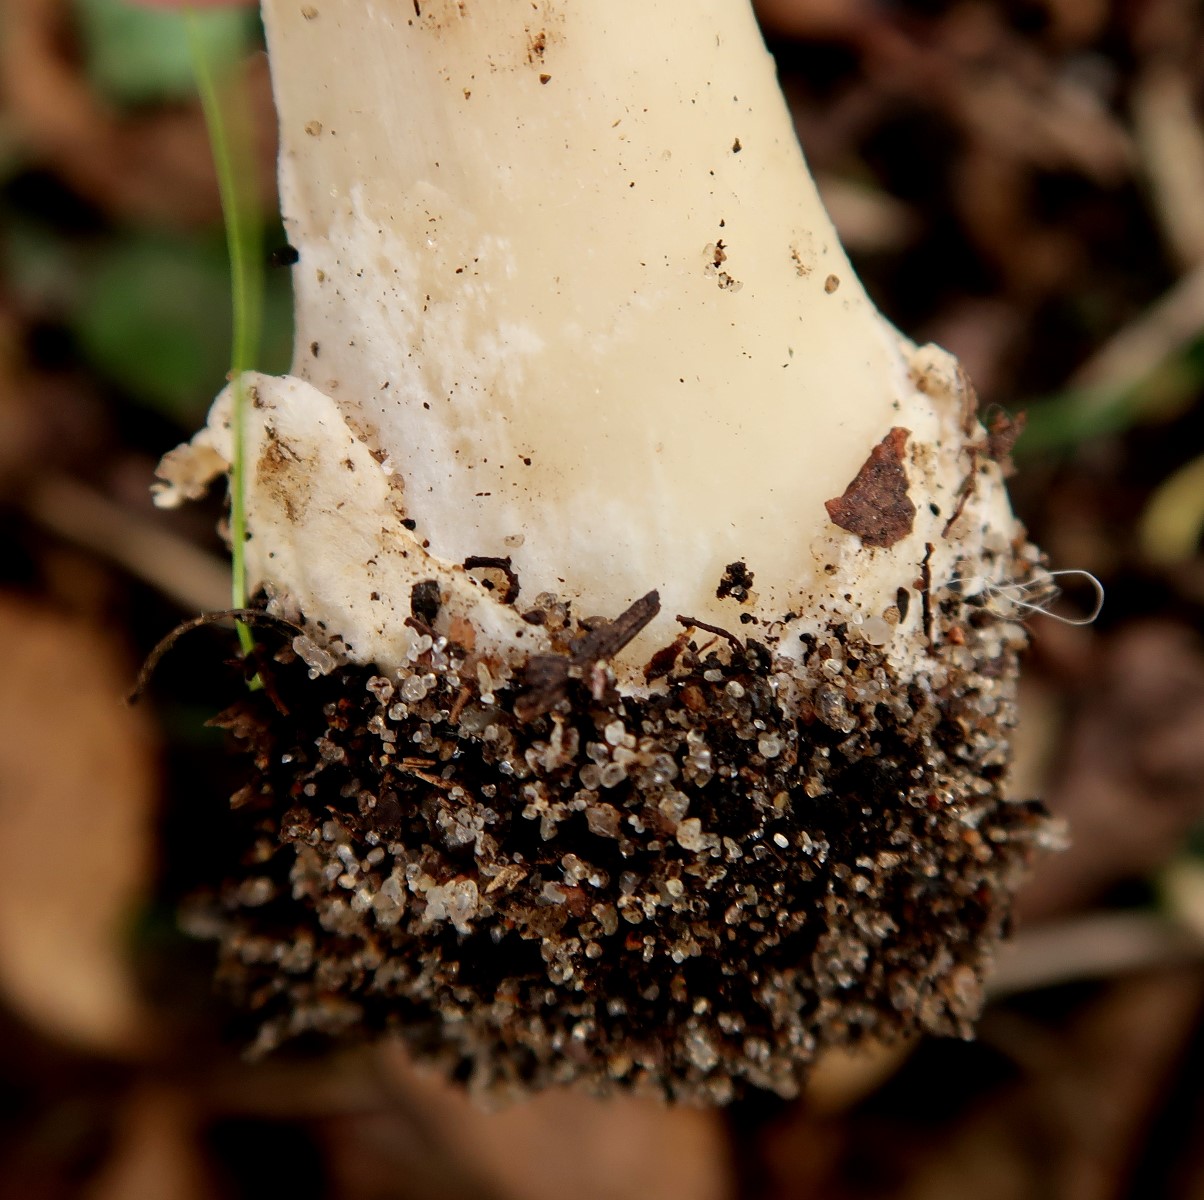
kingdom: Fungi
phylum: Basidiomycota
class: Agaricomycetes
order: Agaricales
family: Pluteaceae
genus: Volvopluteus
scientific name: Volvopluteus gloiocephalus
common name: høj posesvamp
